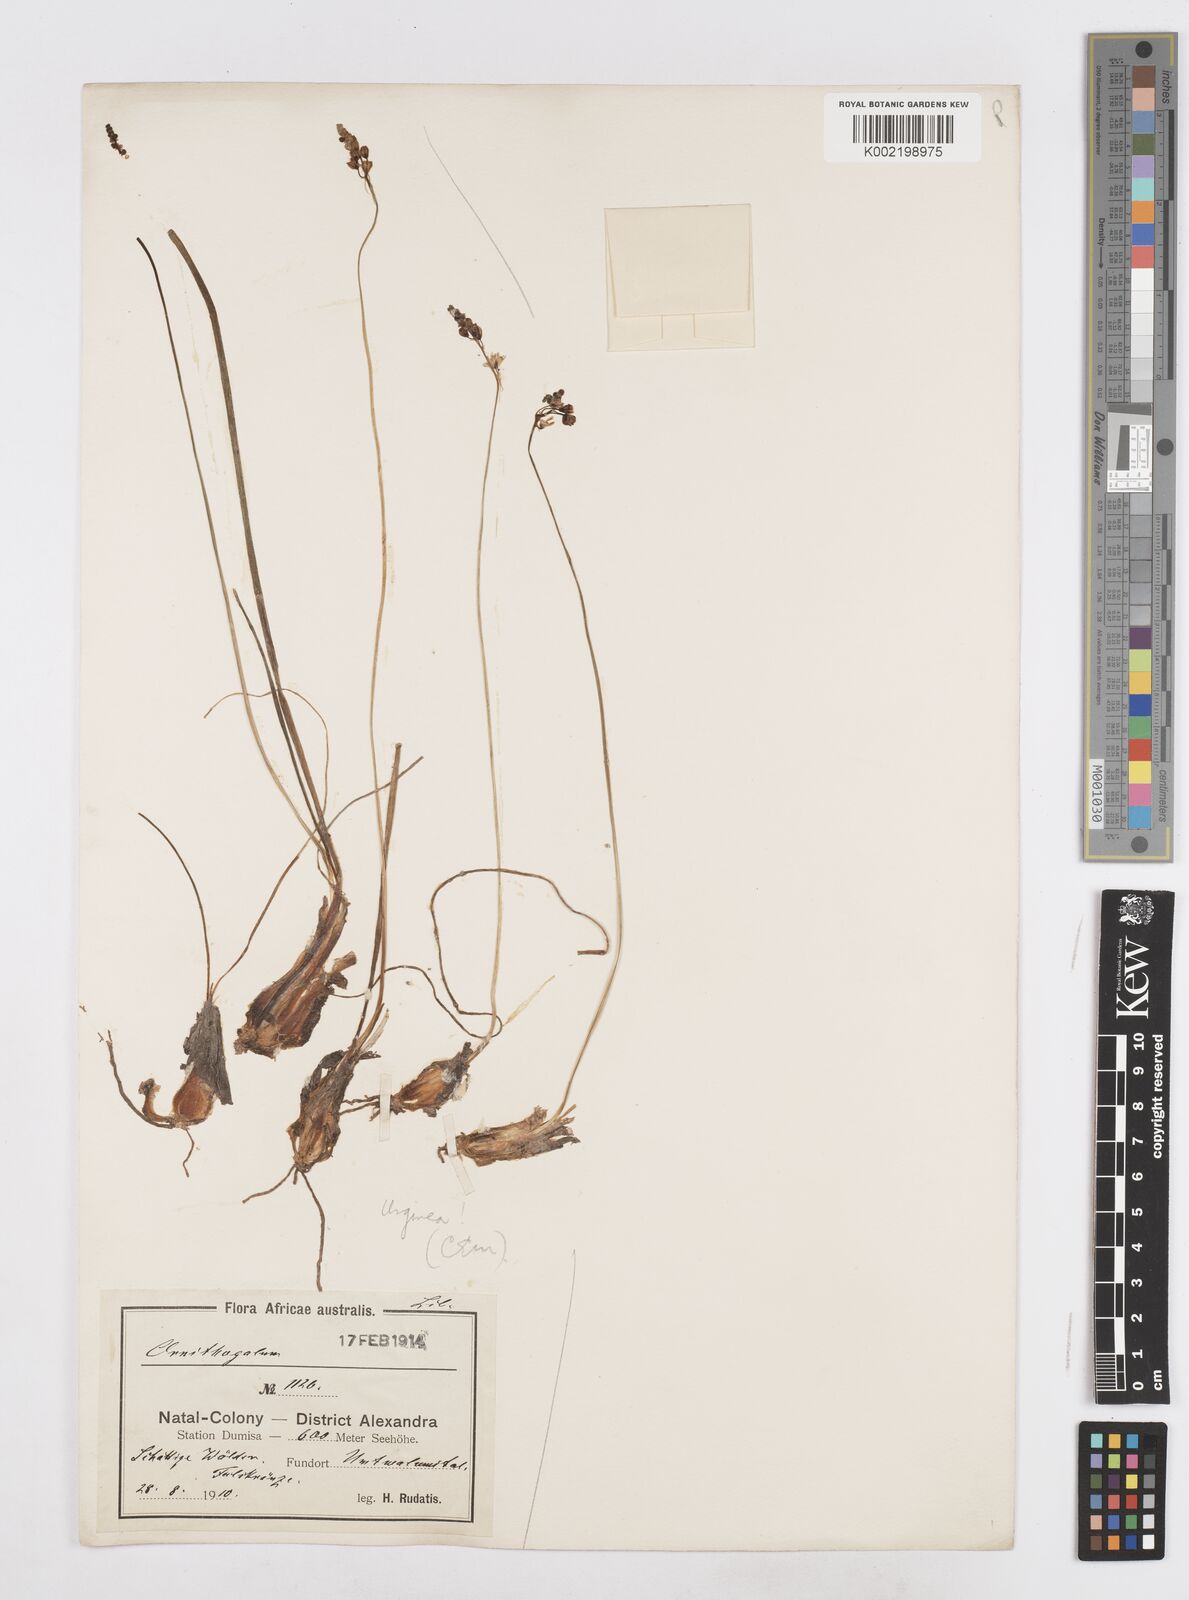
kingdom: Plantae
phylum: Tracheophyta
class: Liliopsida
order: Asparagales
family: Asparagaceae
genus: Drimia
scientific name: Drimia
